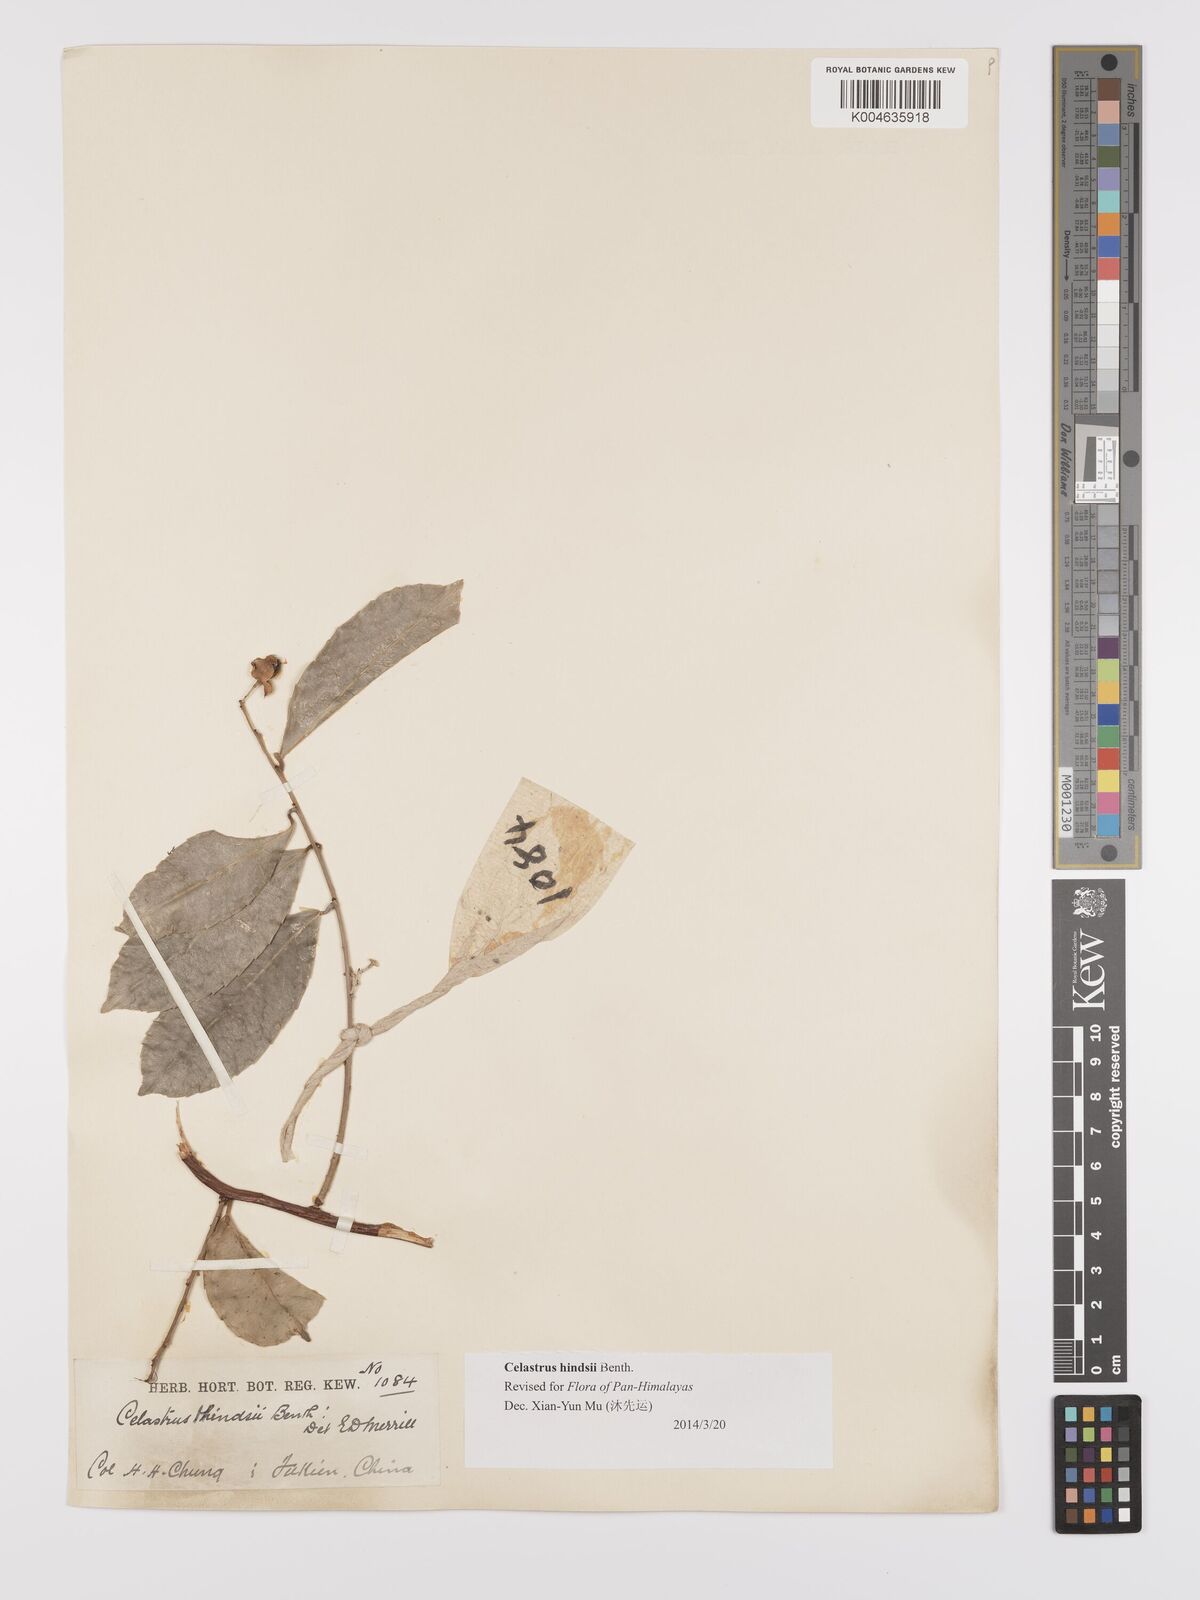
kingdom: Plantae
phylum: Tracheophyta
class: Magnoliopsida
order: Celastrales
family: Celastraceae
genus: Celastrus
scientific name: Celastrus hindsii
